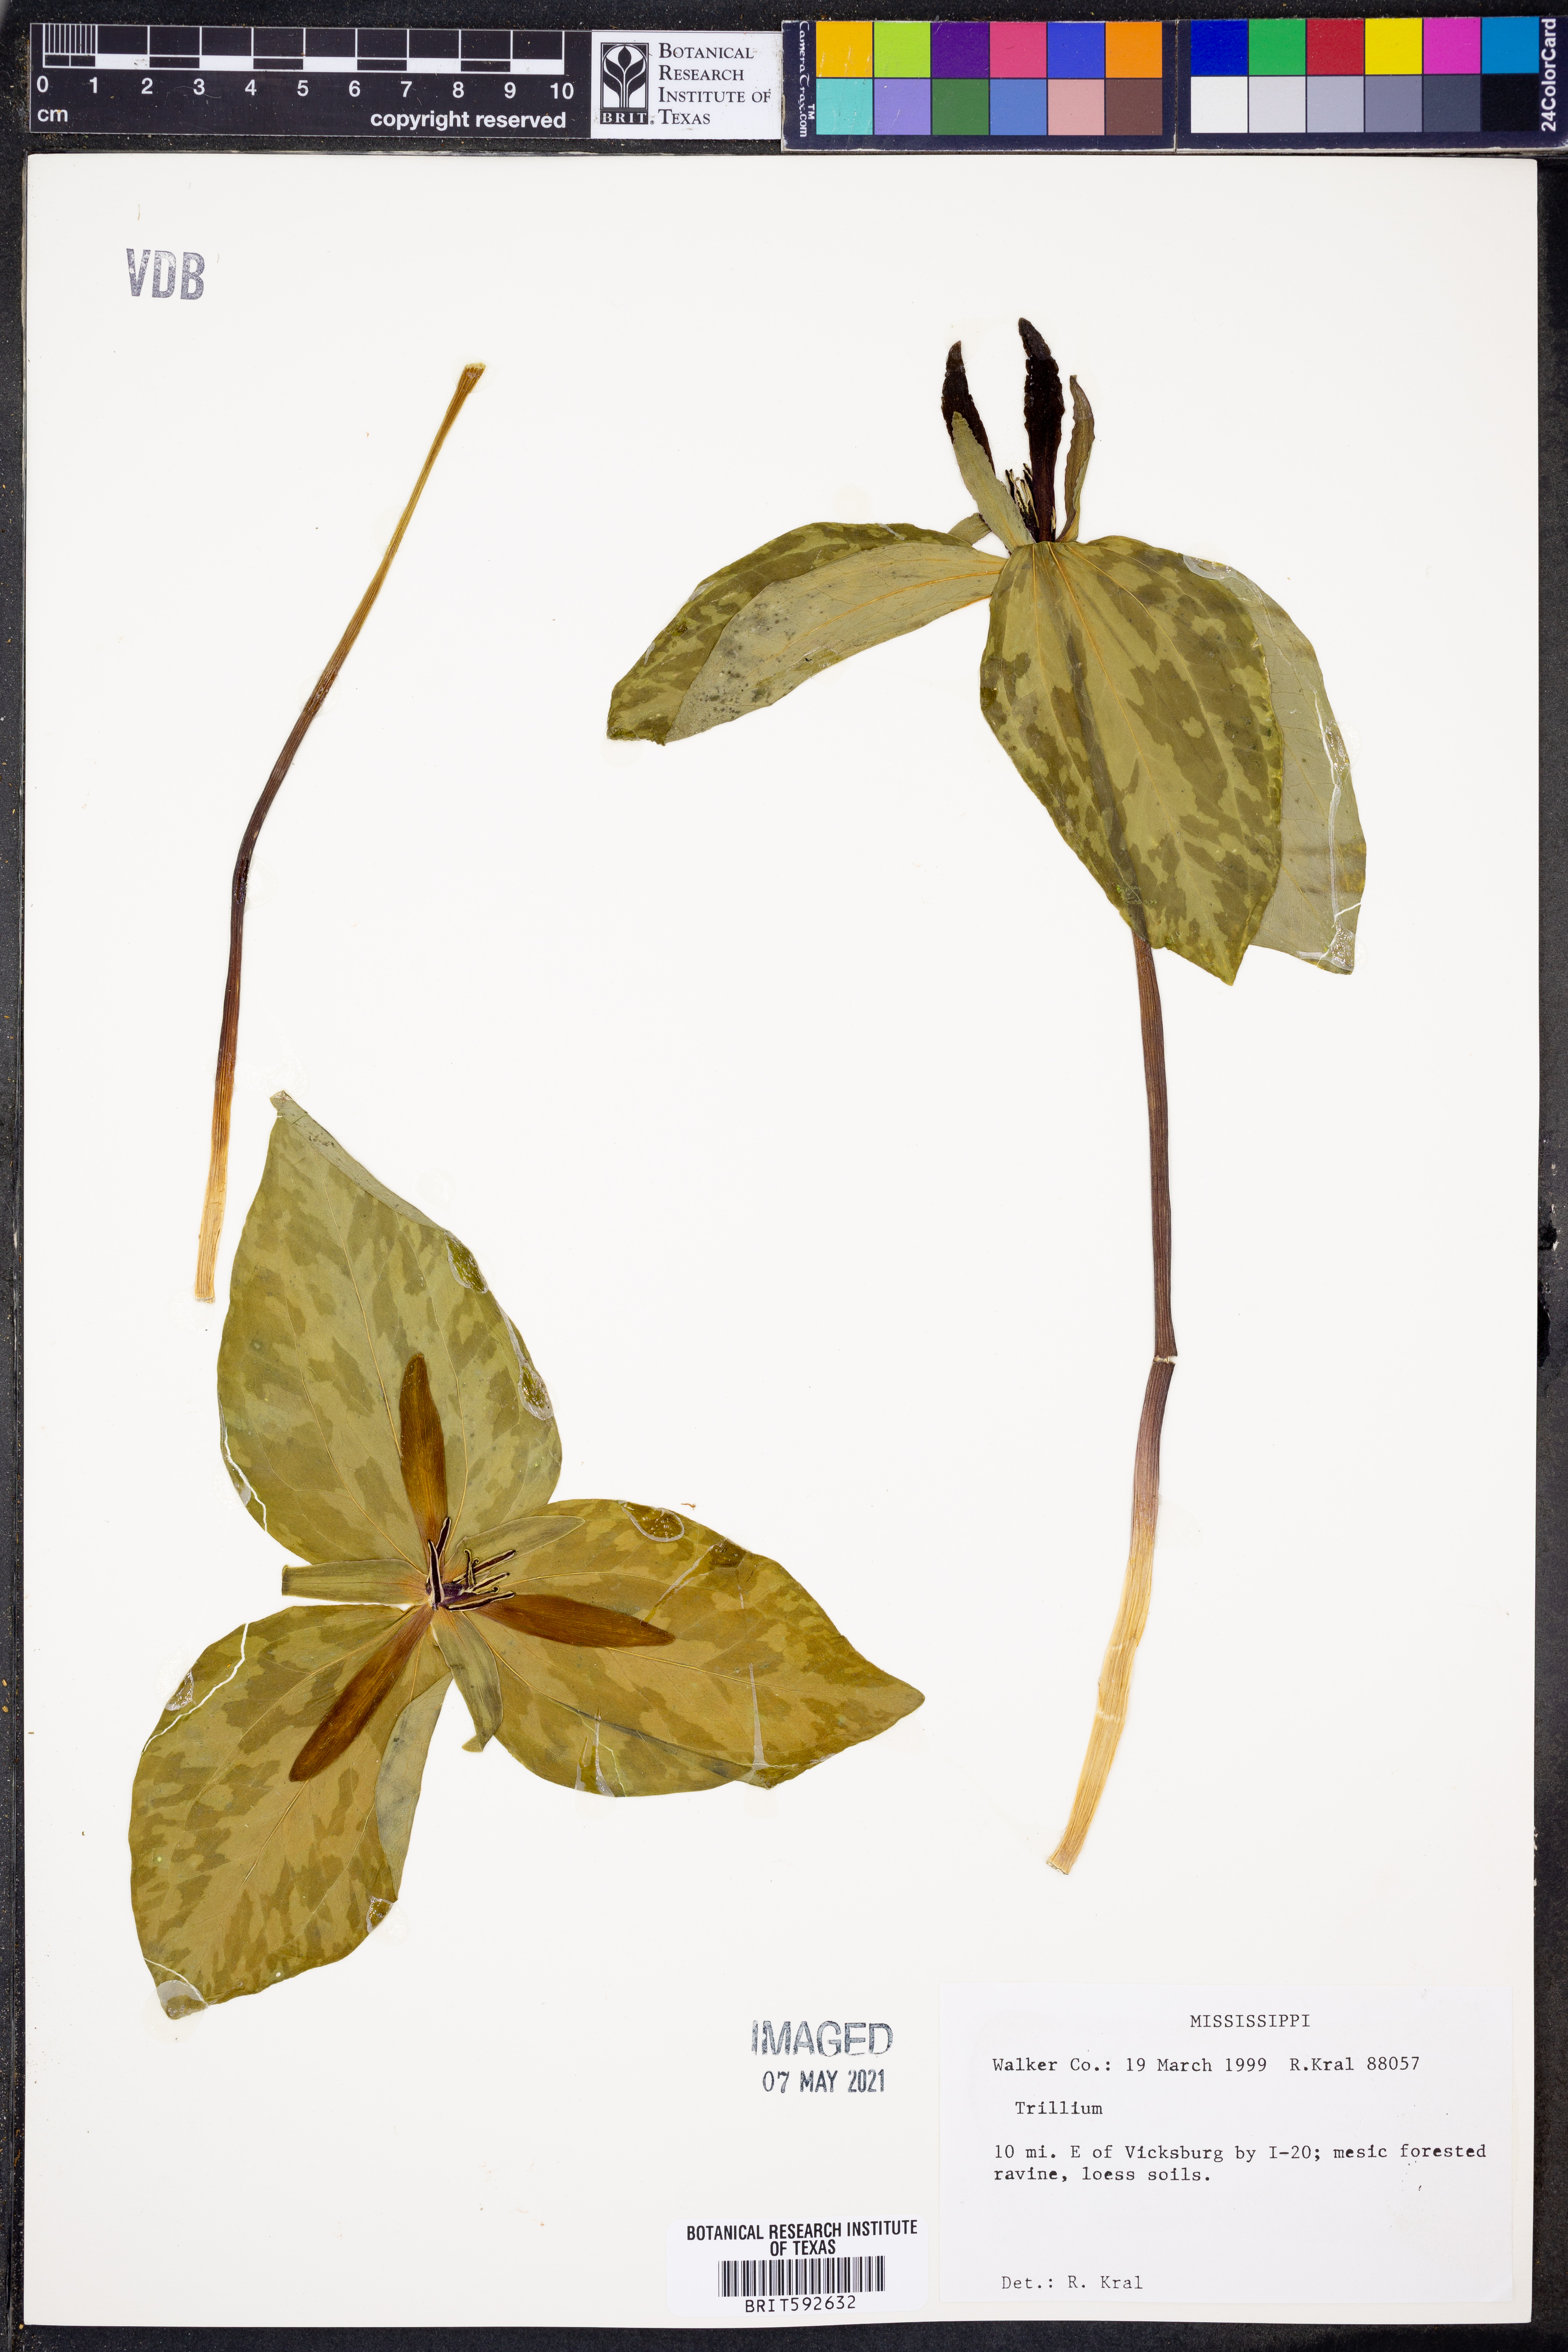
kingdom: Plantae
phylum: Tracheophyta
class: Liliopsida
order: Liliales
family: Melanthiaceae
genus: Trillium
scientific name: Trillium
